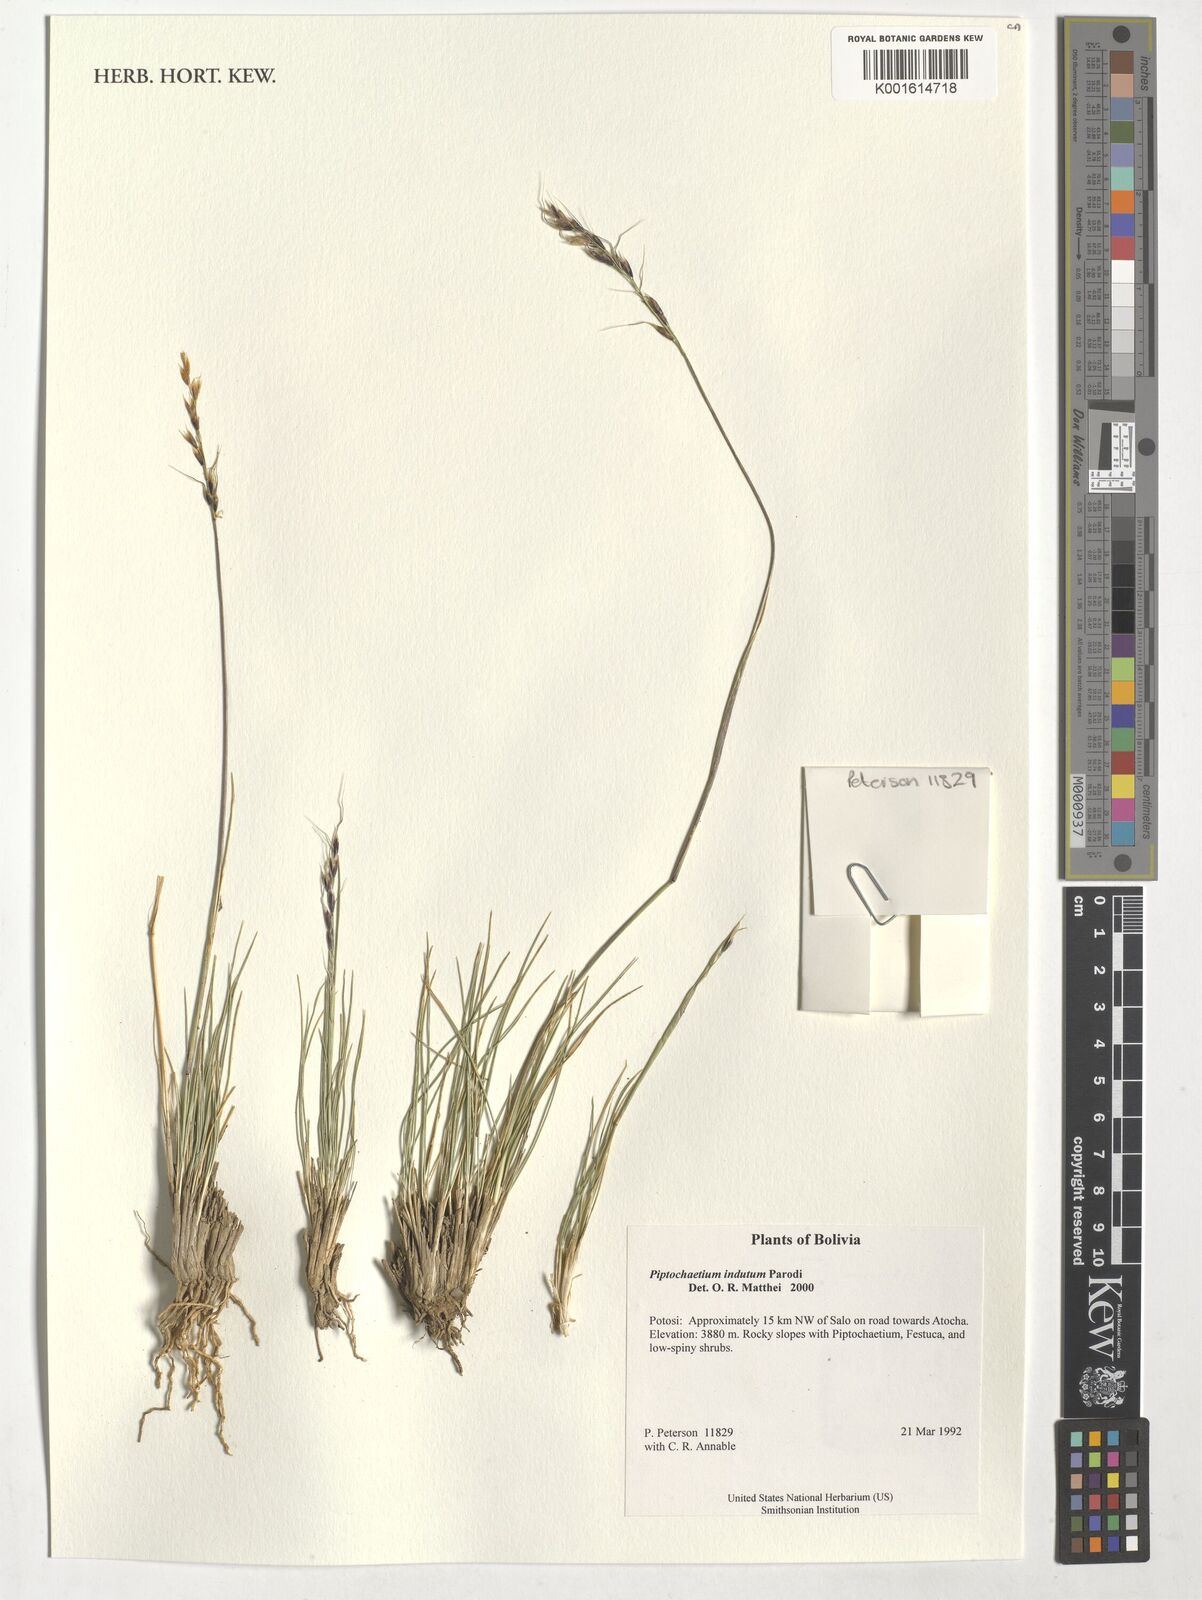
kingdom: Plantae
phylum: Tracheophyta
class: Liliopsida
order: Poales
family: Poaceae
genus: Piptochaetium
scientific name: Piptochaetium indutum
